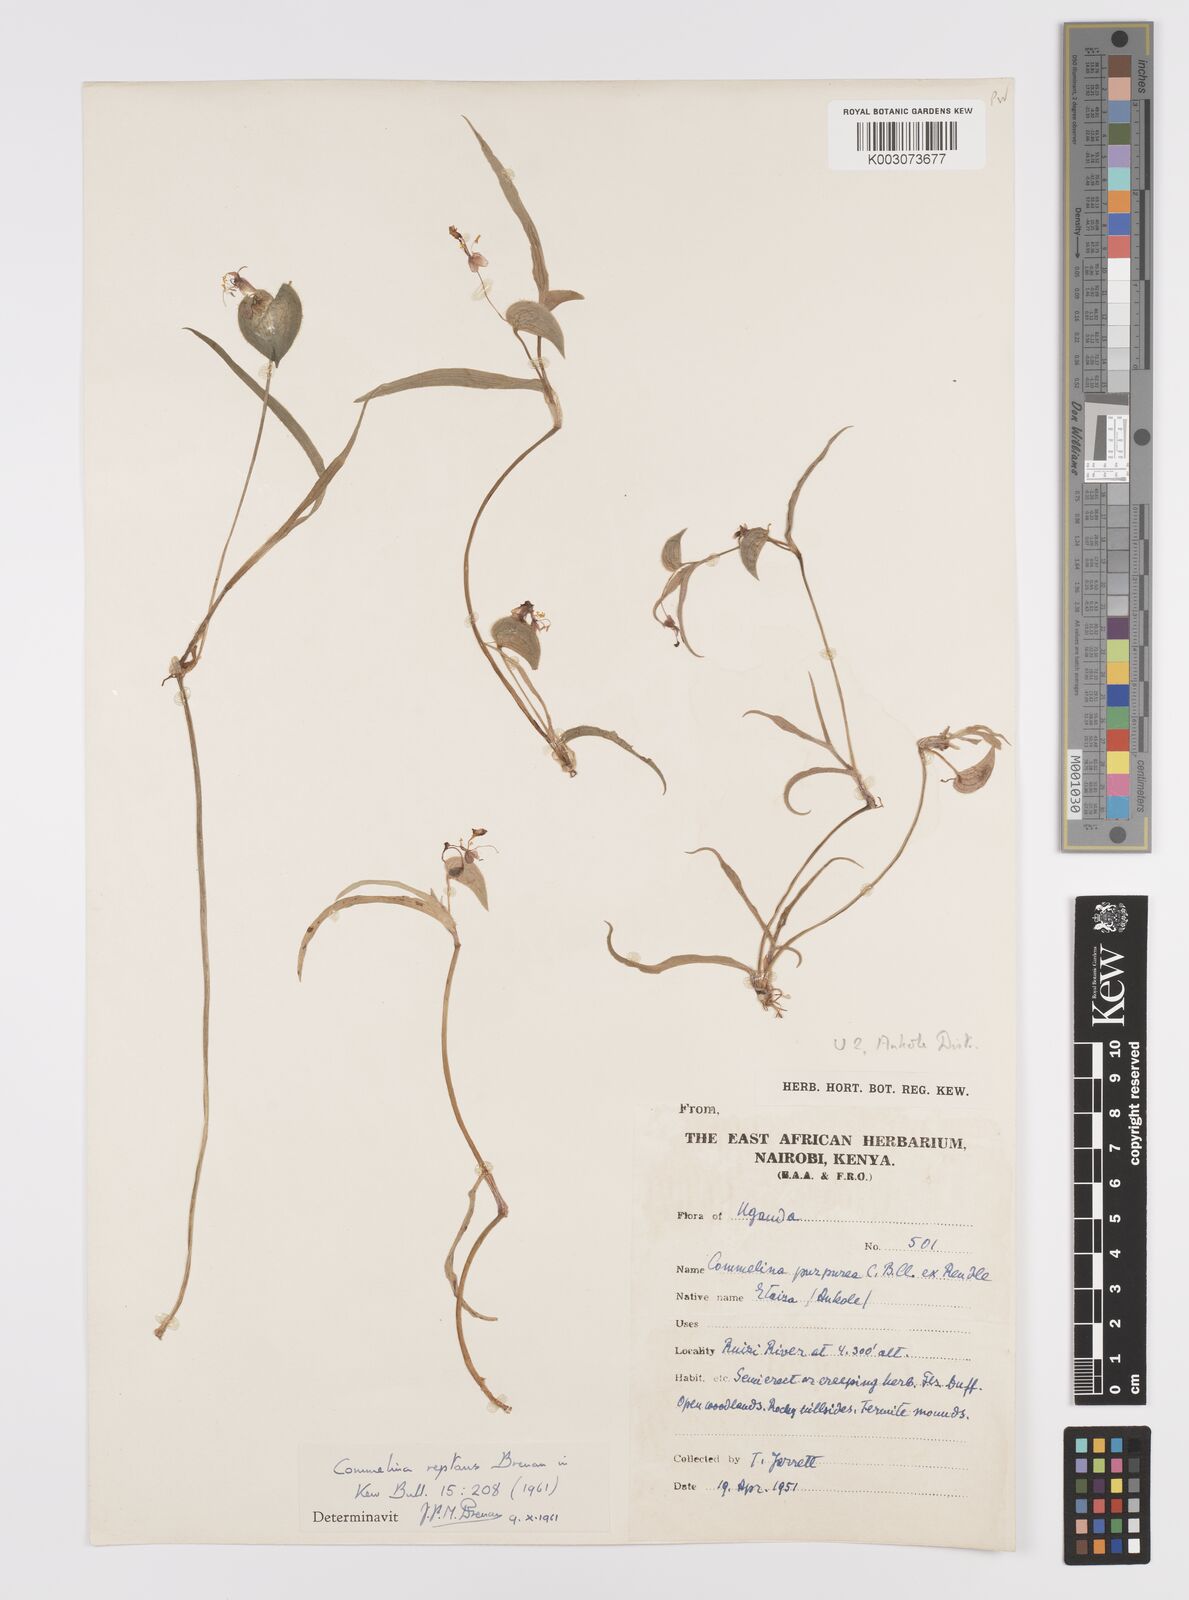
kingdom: Plantae
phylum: Tracheophyta
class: Liliopsida
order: Commelinales
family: Commelinaceae
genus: Commelina
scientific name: Commelina reptans
